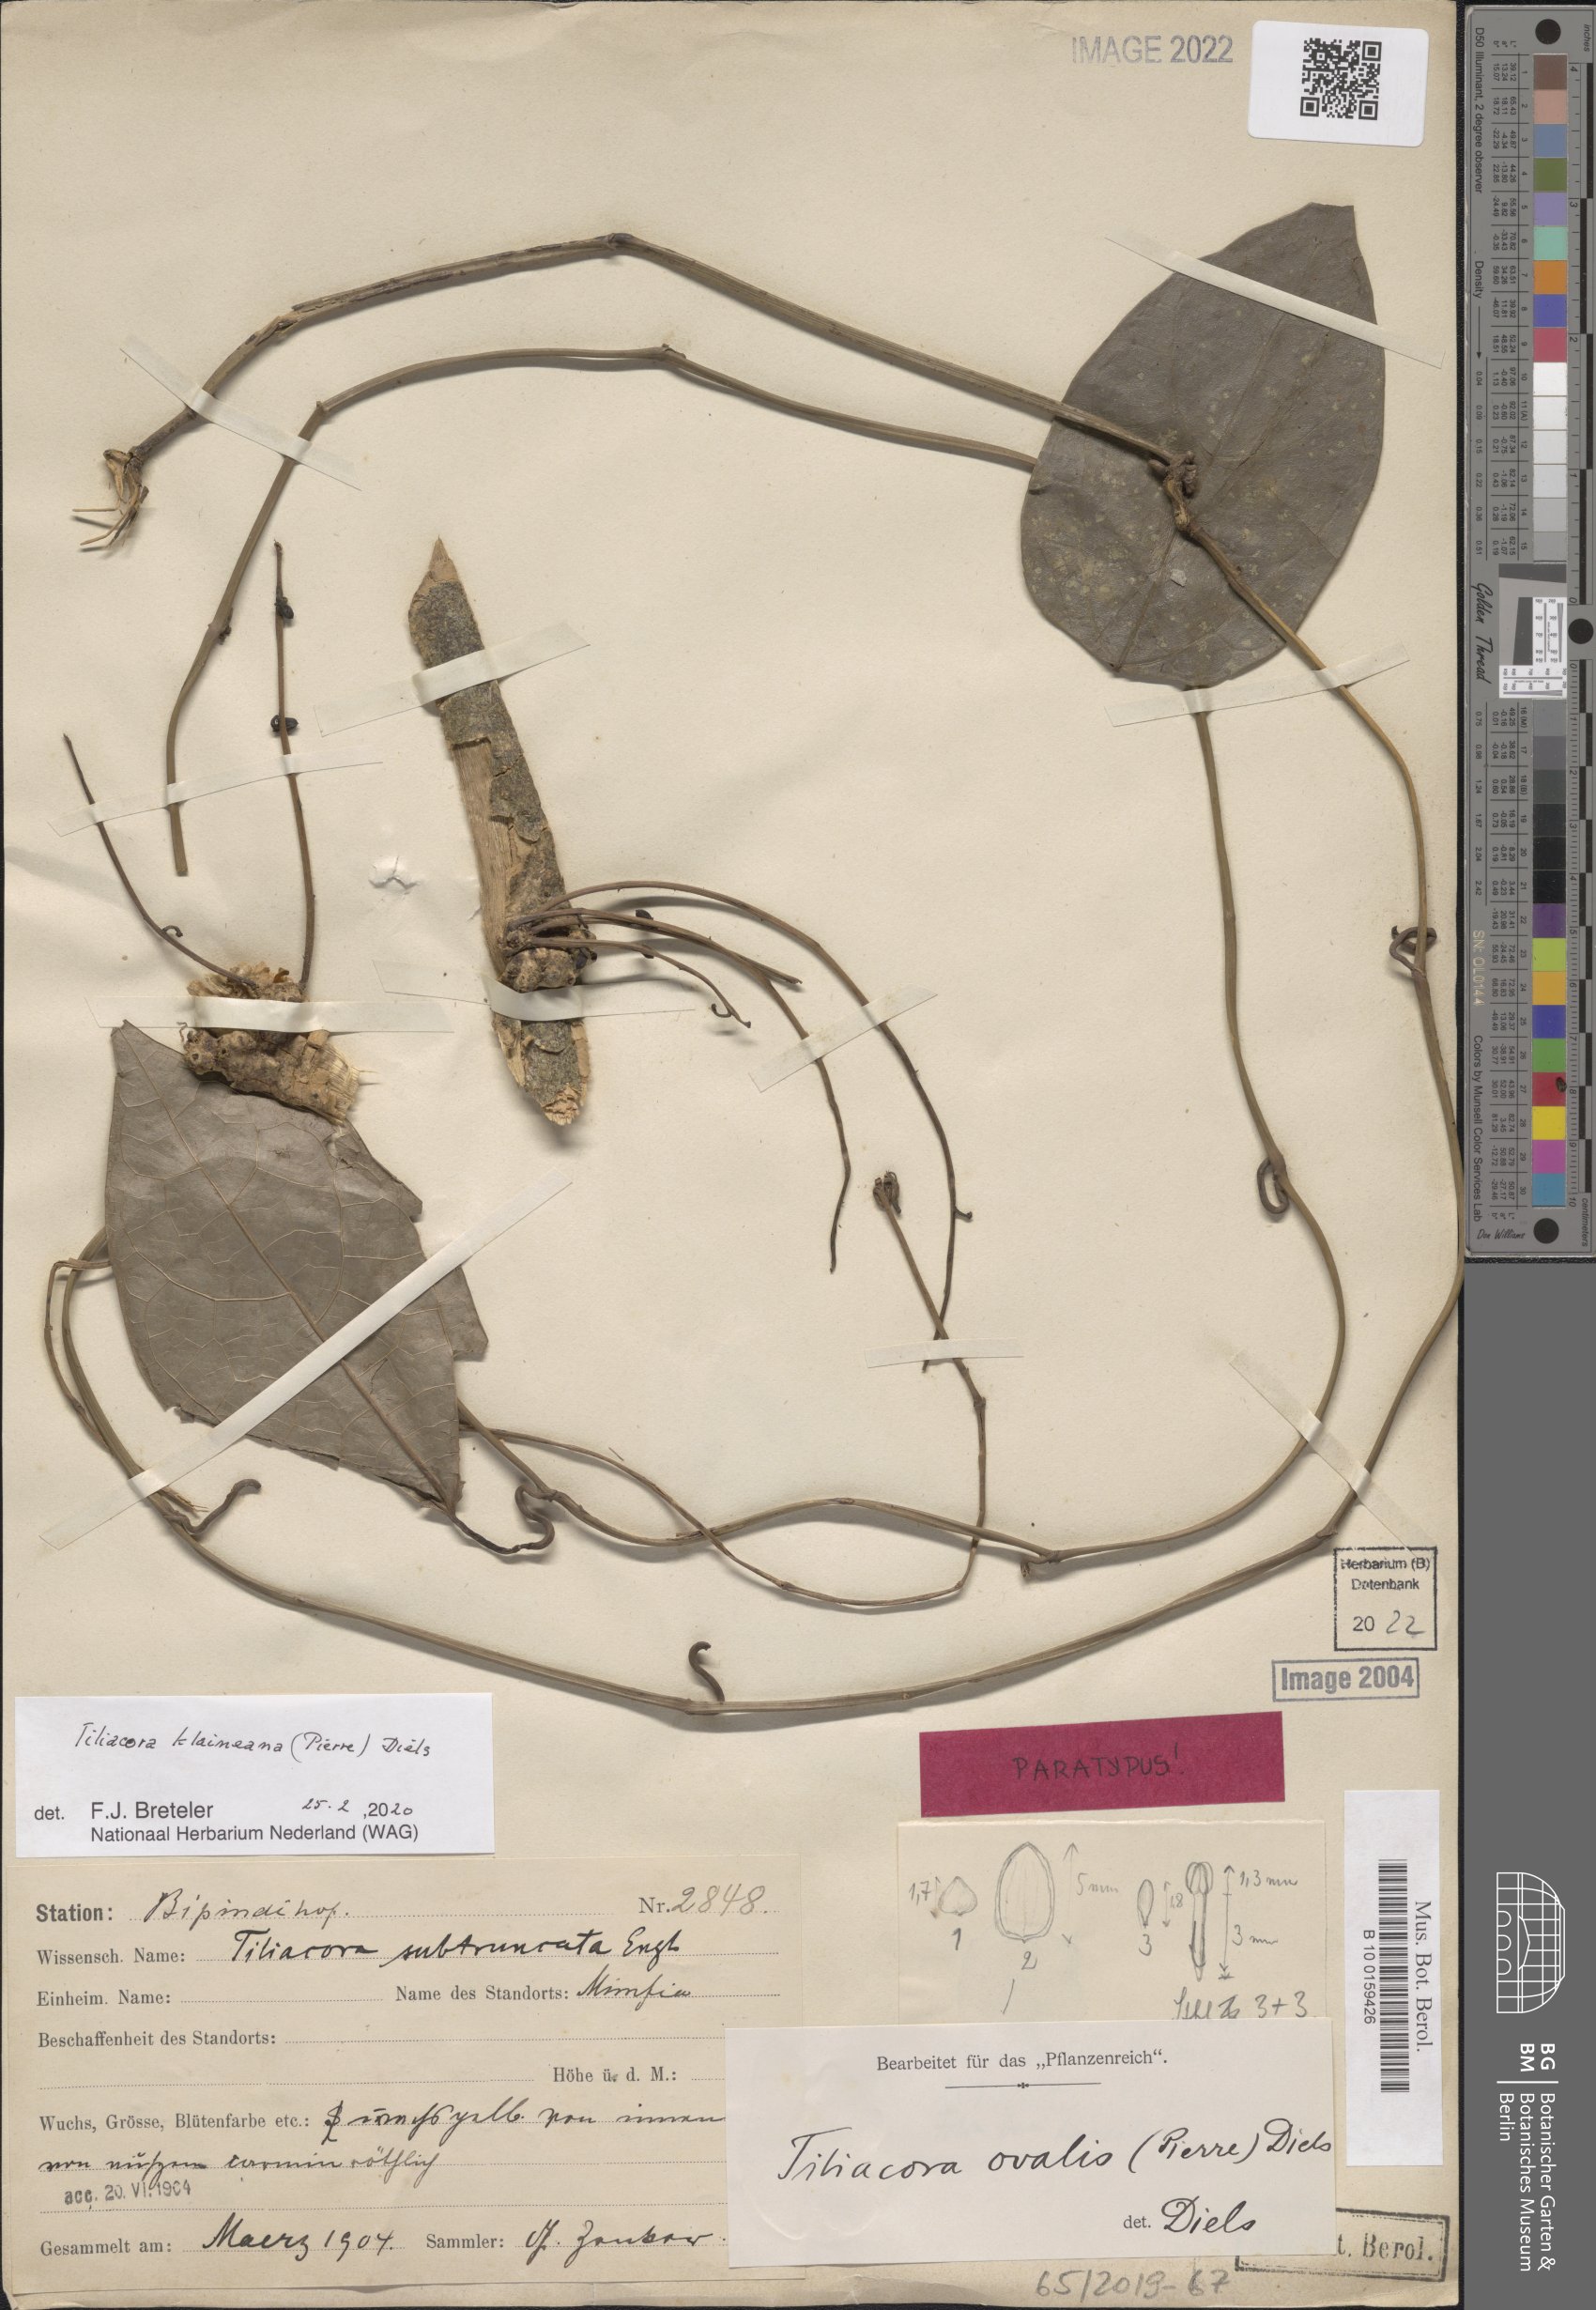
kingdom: Plantae
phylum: Tracheophyta
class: Magnoliopsida
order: Ranunculales
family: Menispermaceae
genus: Tiliacora
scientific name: Tiliacora klaineana
